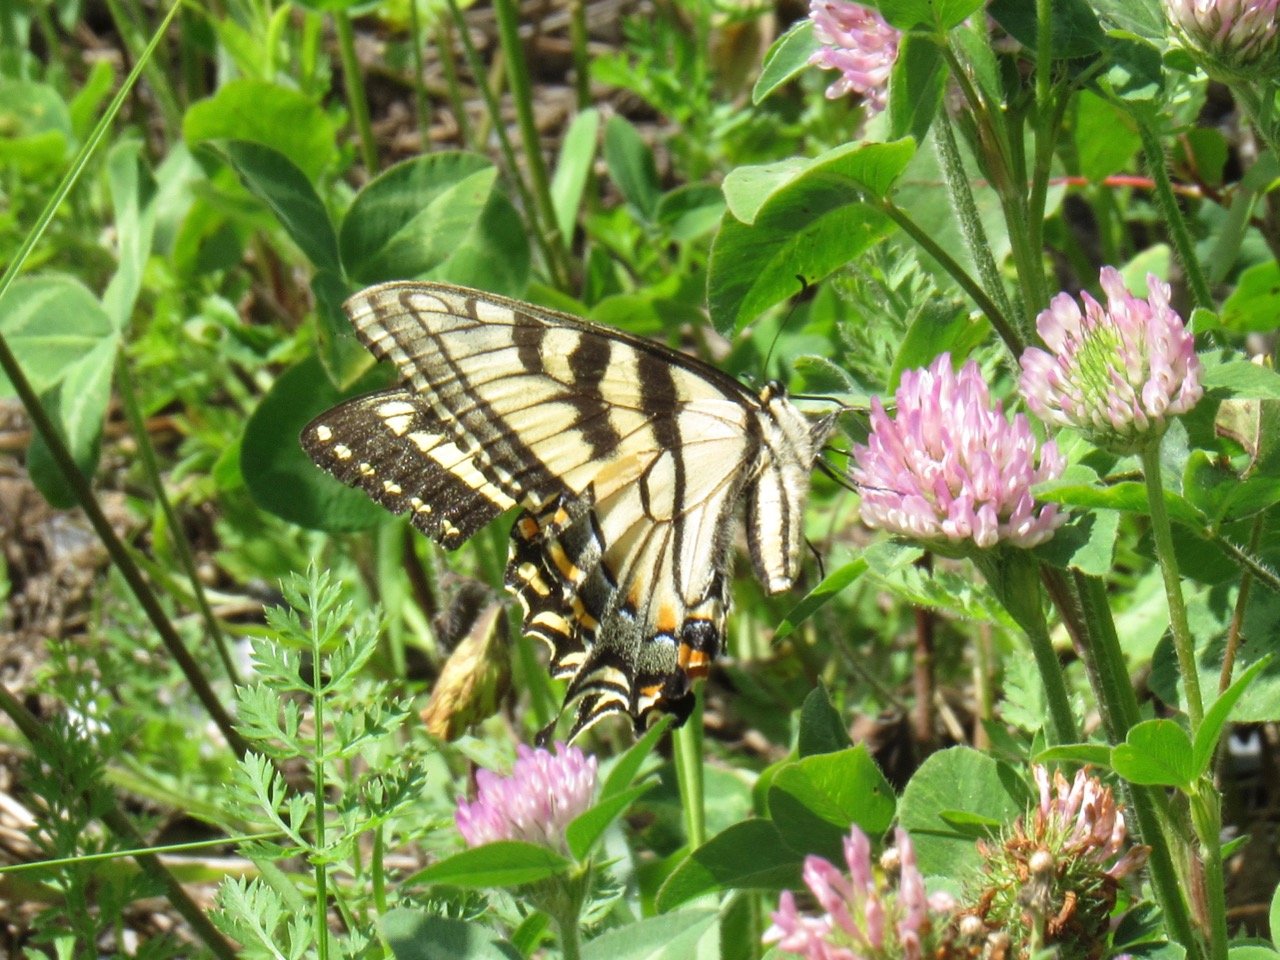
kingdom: Animalia
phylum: Arthropoda
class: Insecta
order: Lepidoptera
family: Papilionidae
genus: Pterourus
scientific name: Pterourus canadensis
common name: Canadian Tiger Swallowtail
